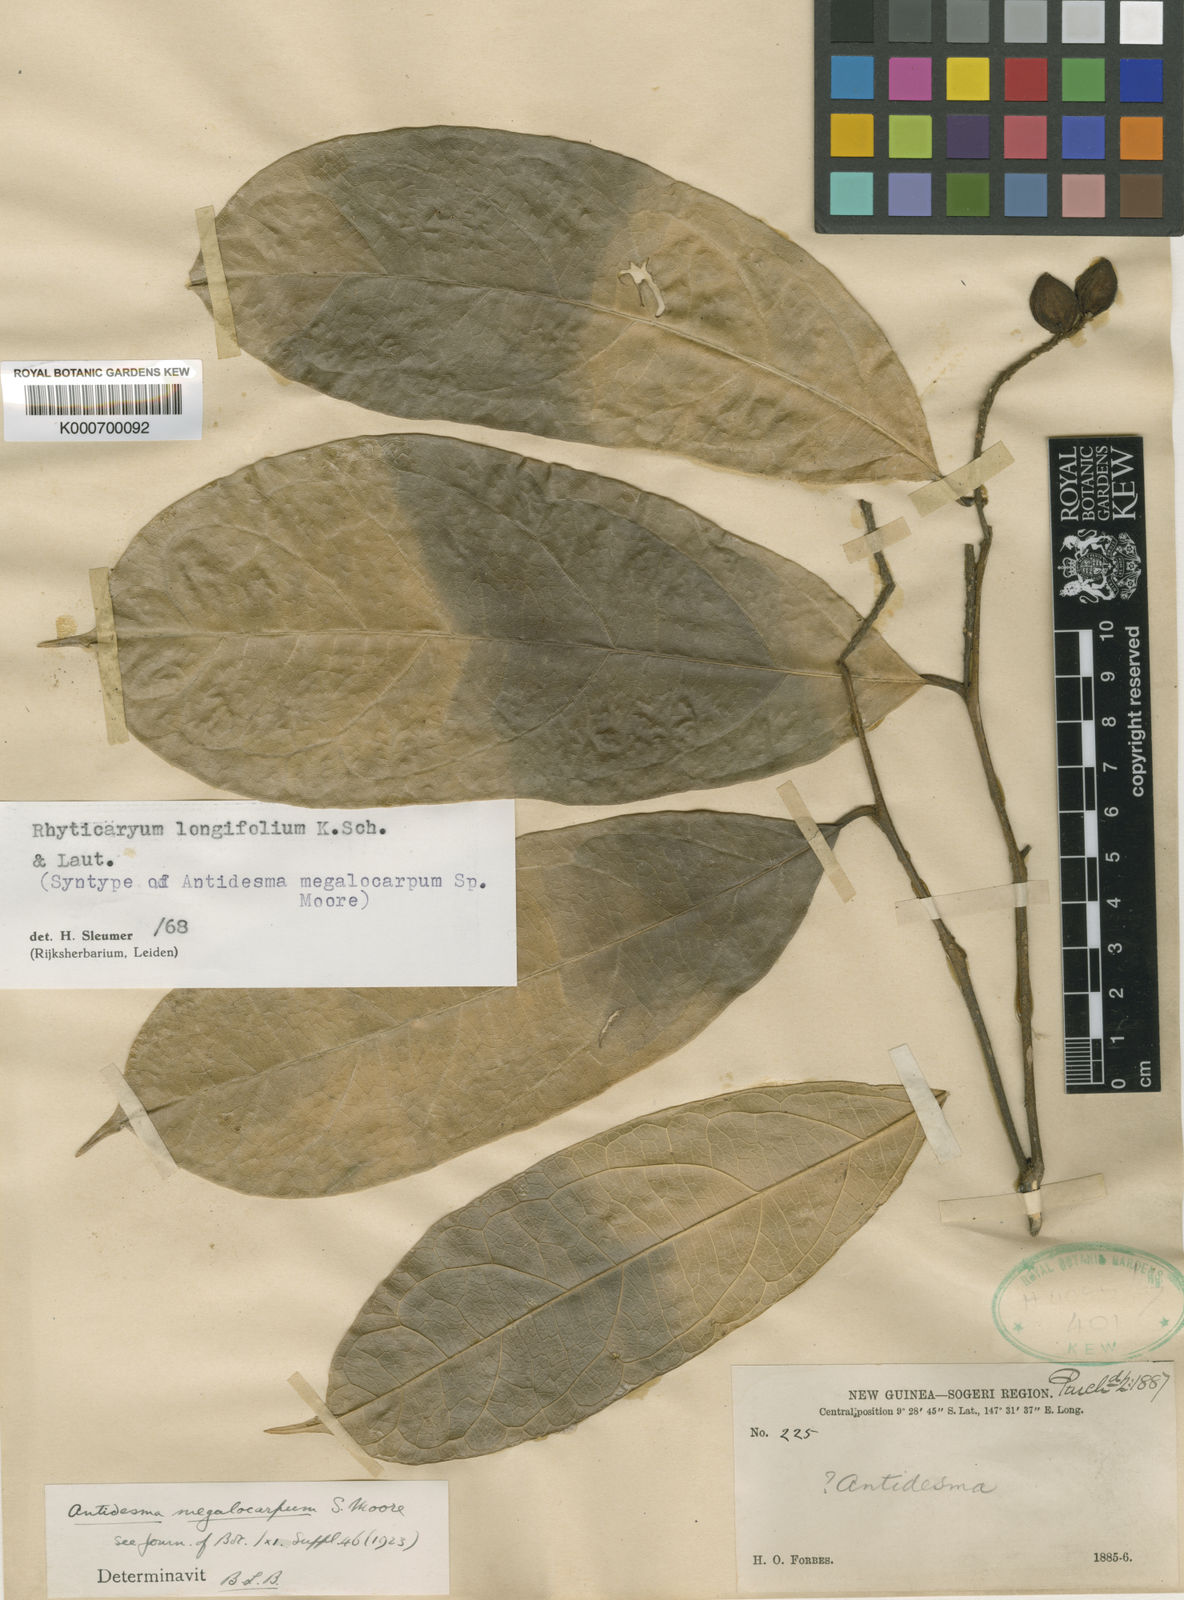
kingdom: Plantae
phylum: Tracheophyta
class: Magnoliopsida
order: Icacinales
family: Icacinaceae
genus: Ryticaryum
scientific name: Ryticaryum
